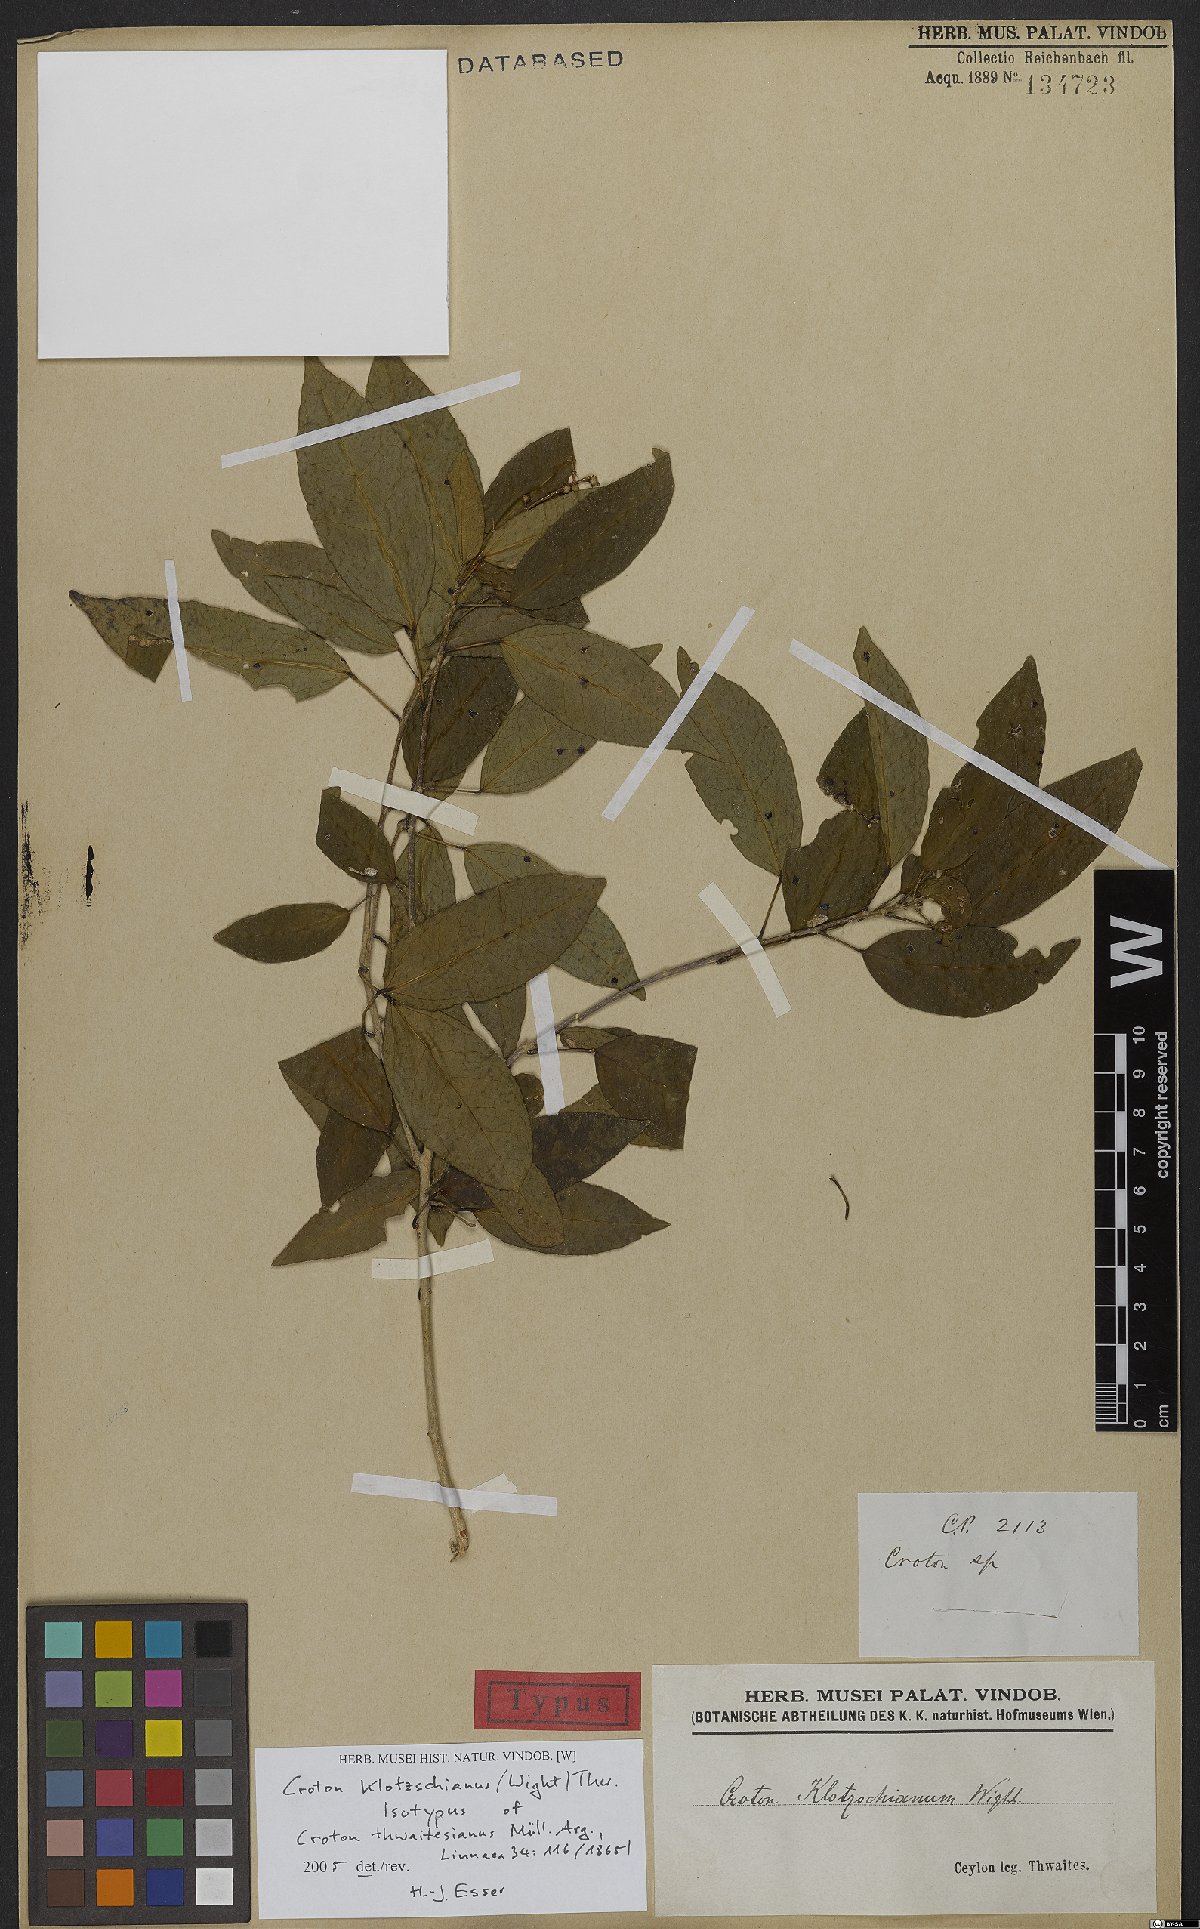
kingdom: Plantae
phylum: Tracheophyta
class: Magnoliopsida
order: Malpighiales
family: Euphorbiaceae
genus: Croton
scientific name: Croton klotzschianus
